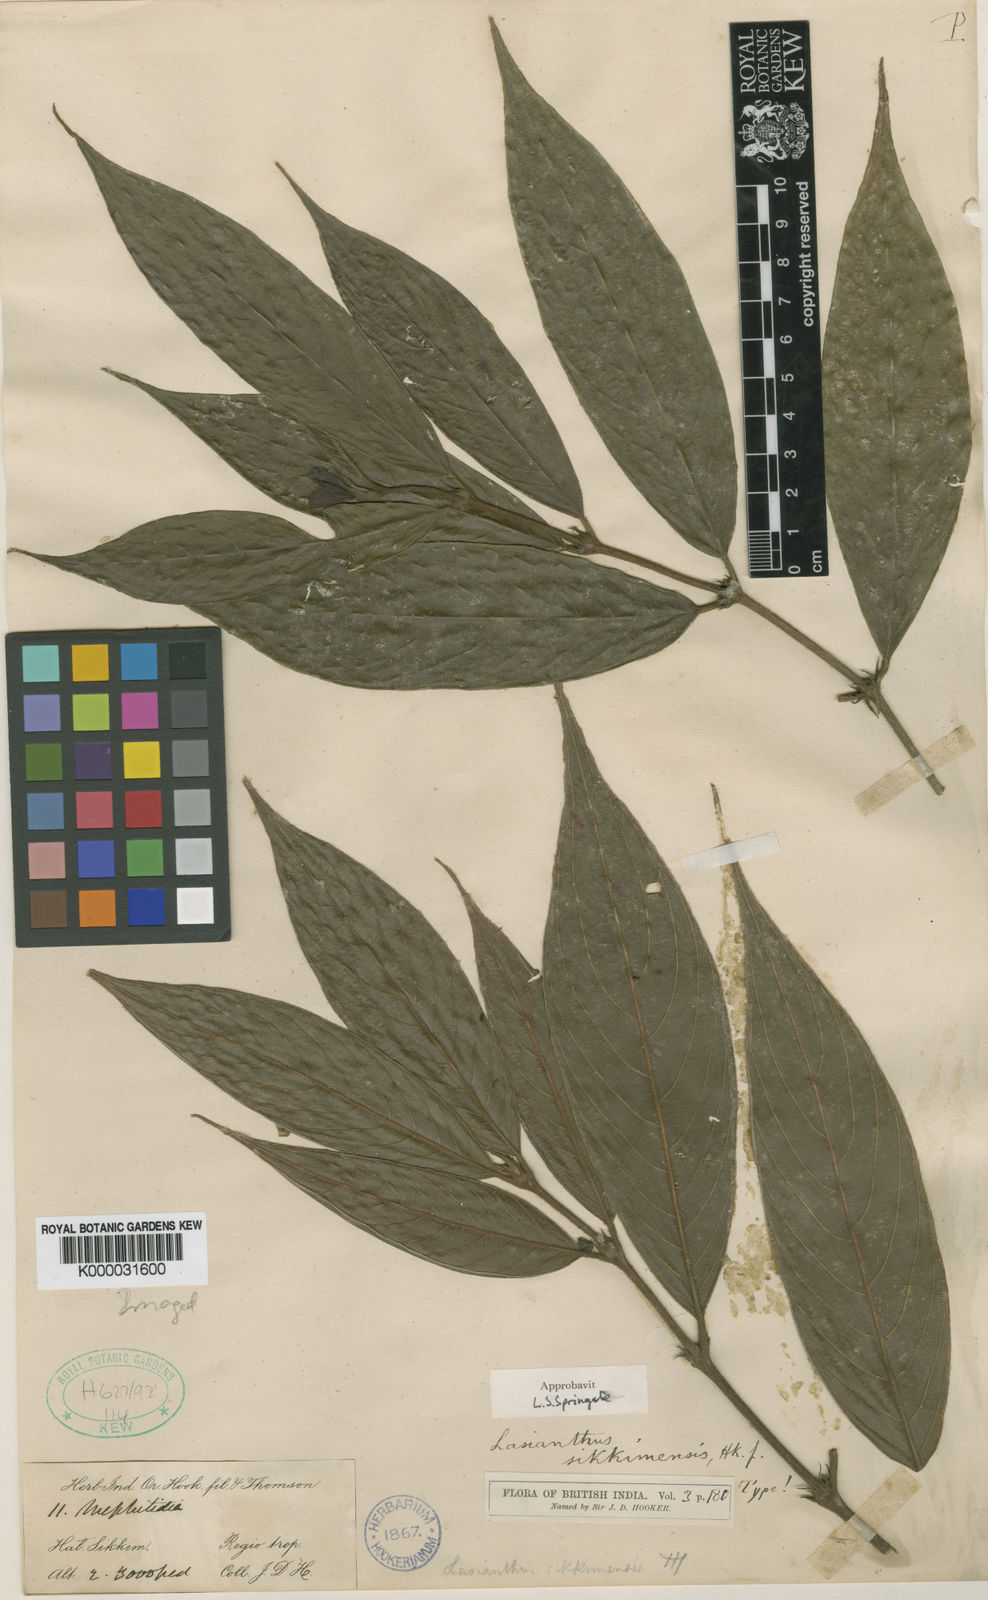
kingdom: Plantae
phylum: Tracheophyta
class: Magnoliopsida
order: Gentianales
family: Rubiaceae
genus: Lasianthus
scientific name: Lasianthus sikkimensis
